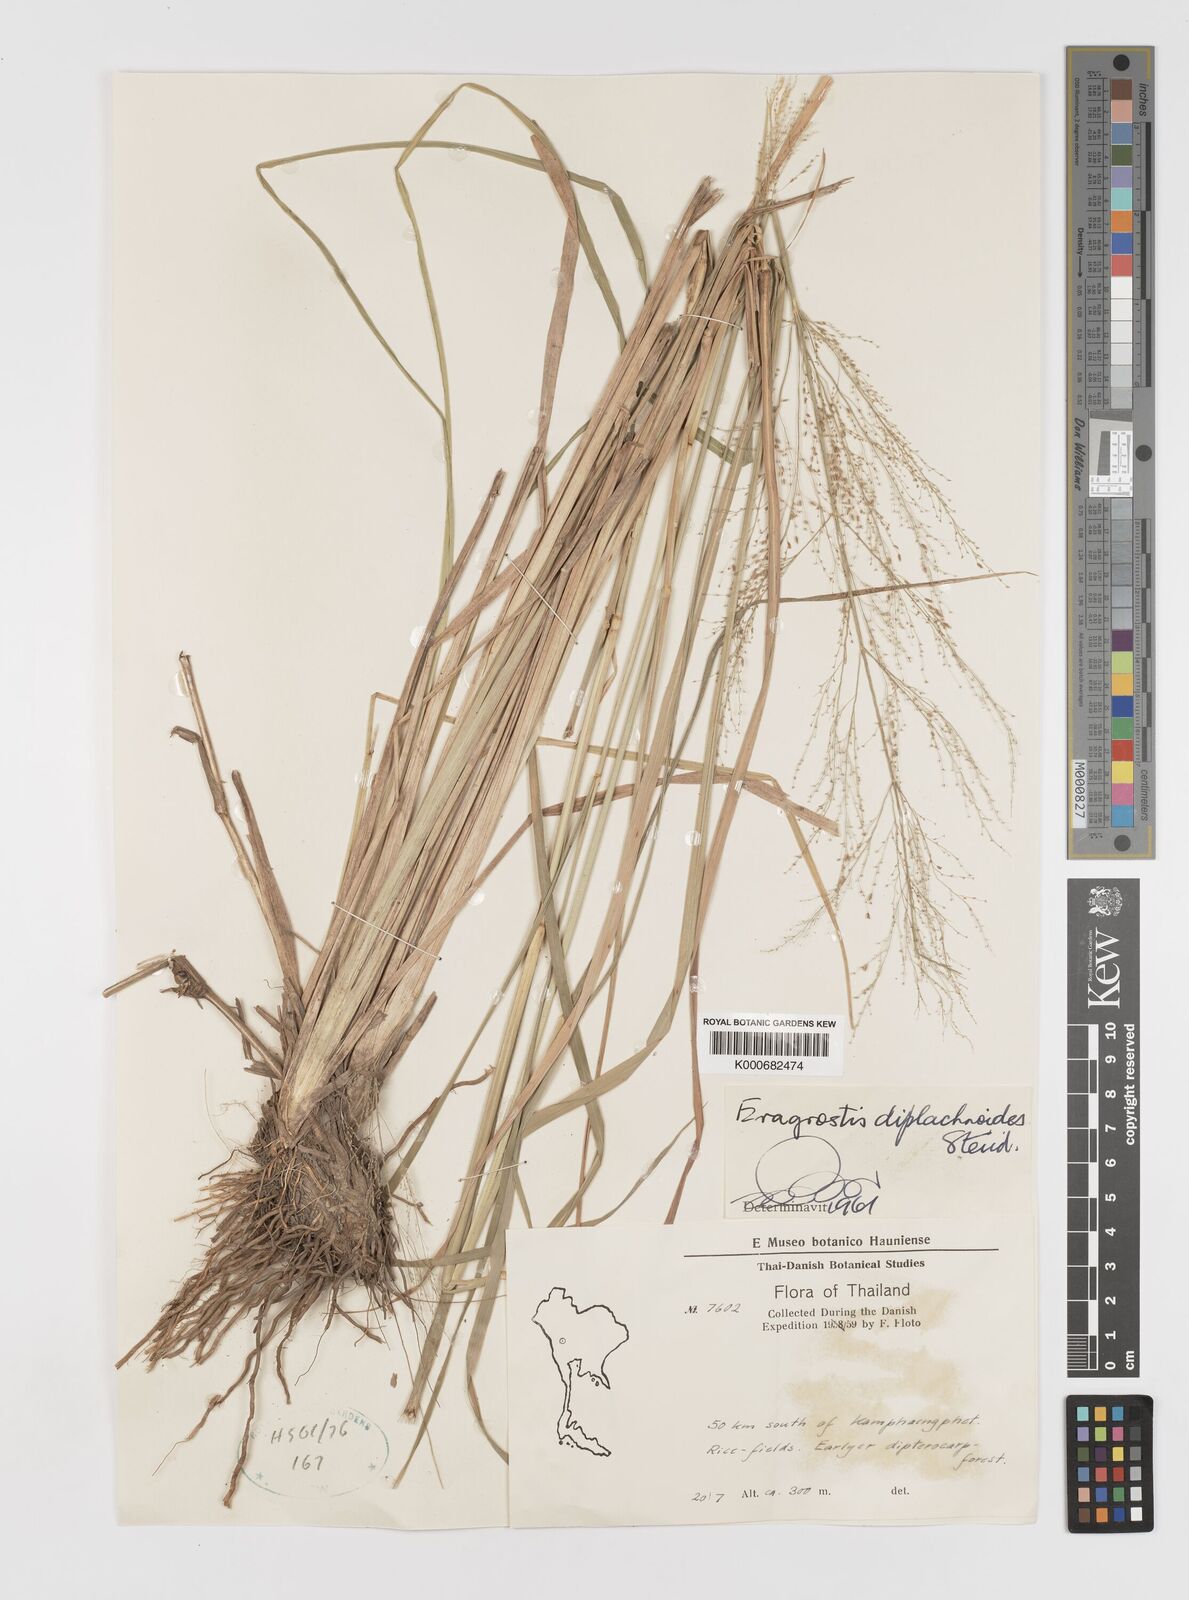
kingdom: Plantae
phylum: Tracheophyta
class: Liliopsida
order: Poales
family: Poaceae
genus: Eragrostis
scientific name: Eragrostis japonica
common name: Pond lovegrass
